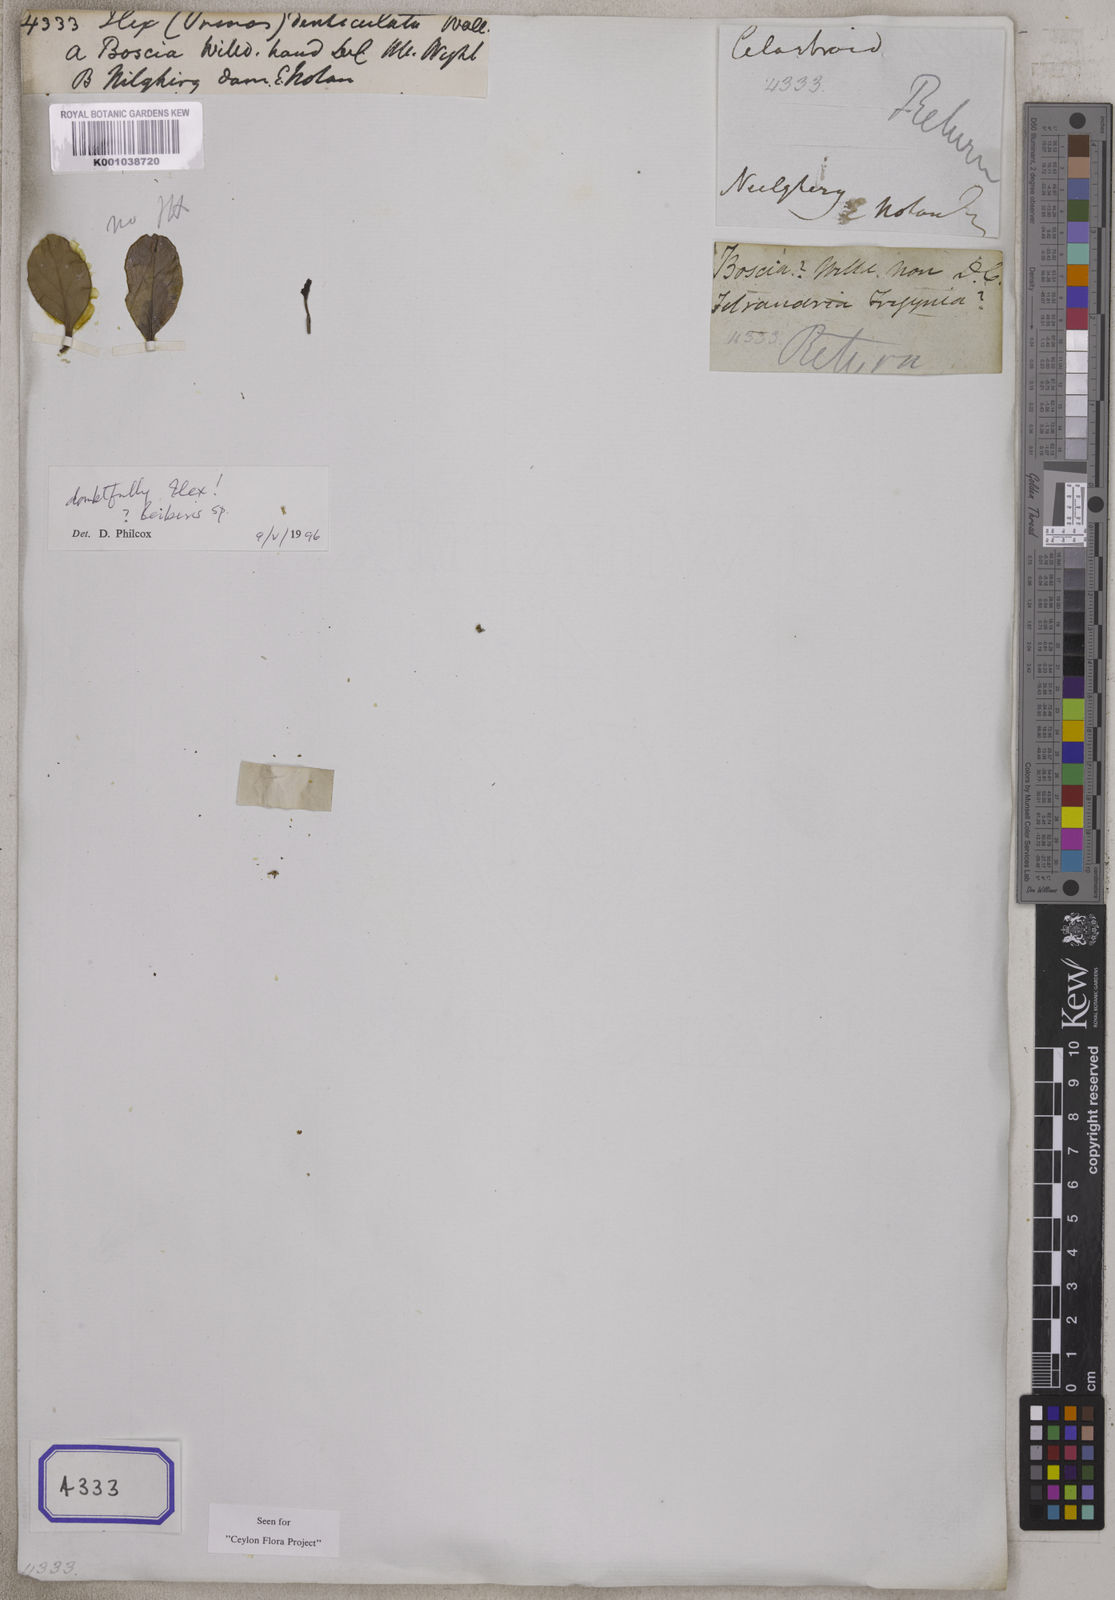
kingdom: Plantae
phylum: Tracheophyta
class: Magnoliopsida
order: Aquifoliales
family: Aquifoliaceae
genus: Ilex
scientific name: Ilex
